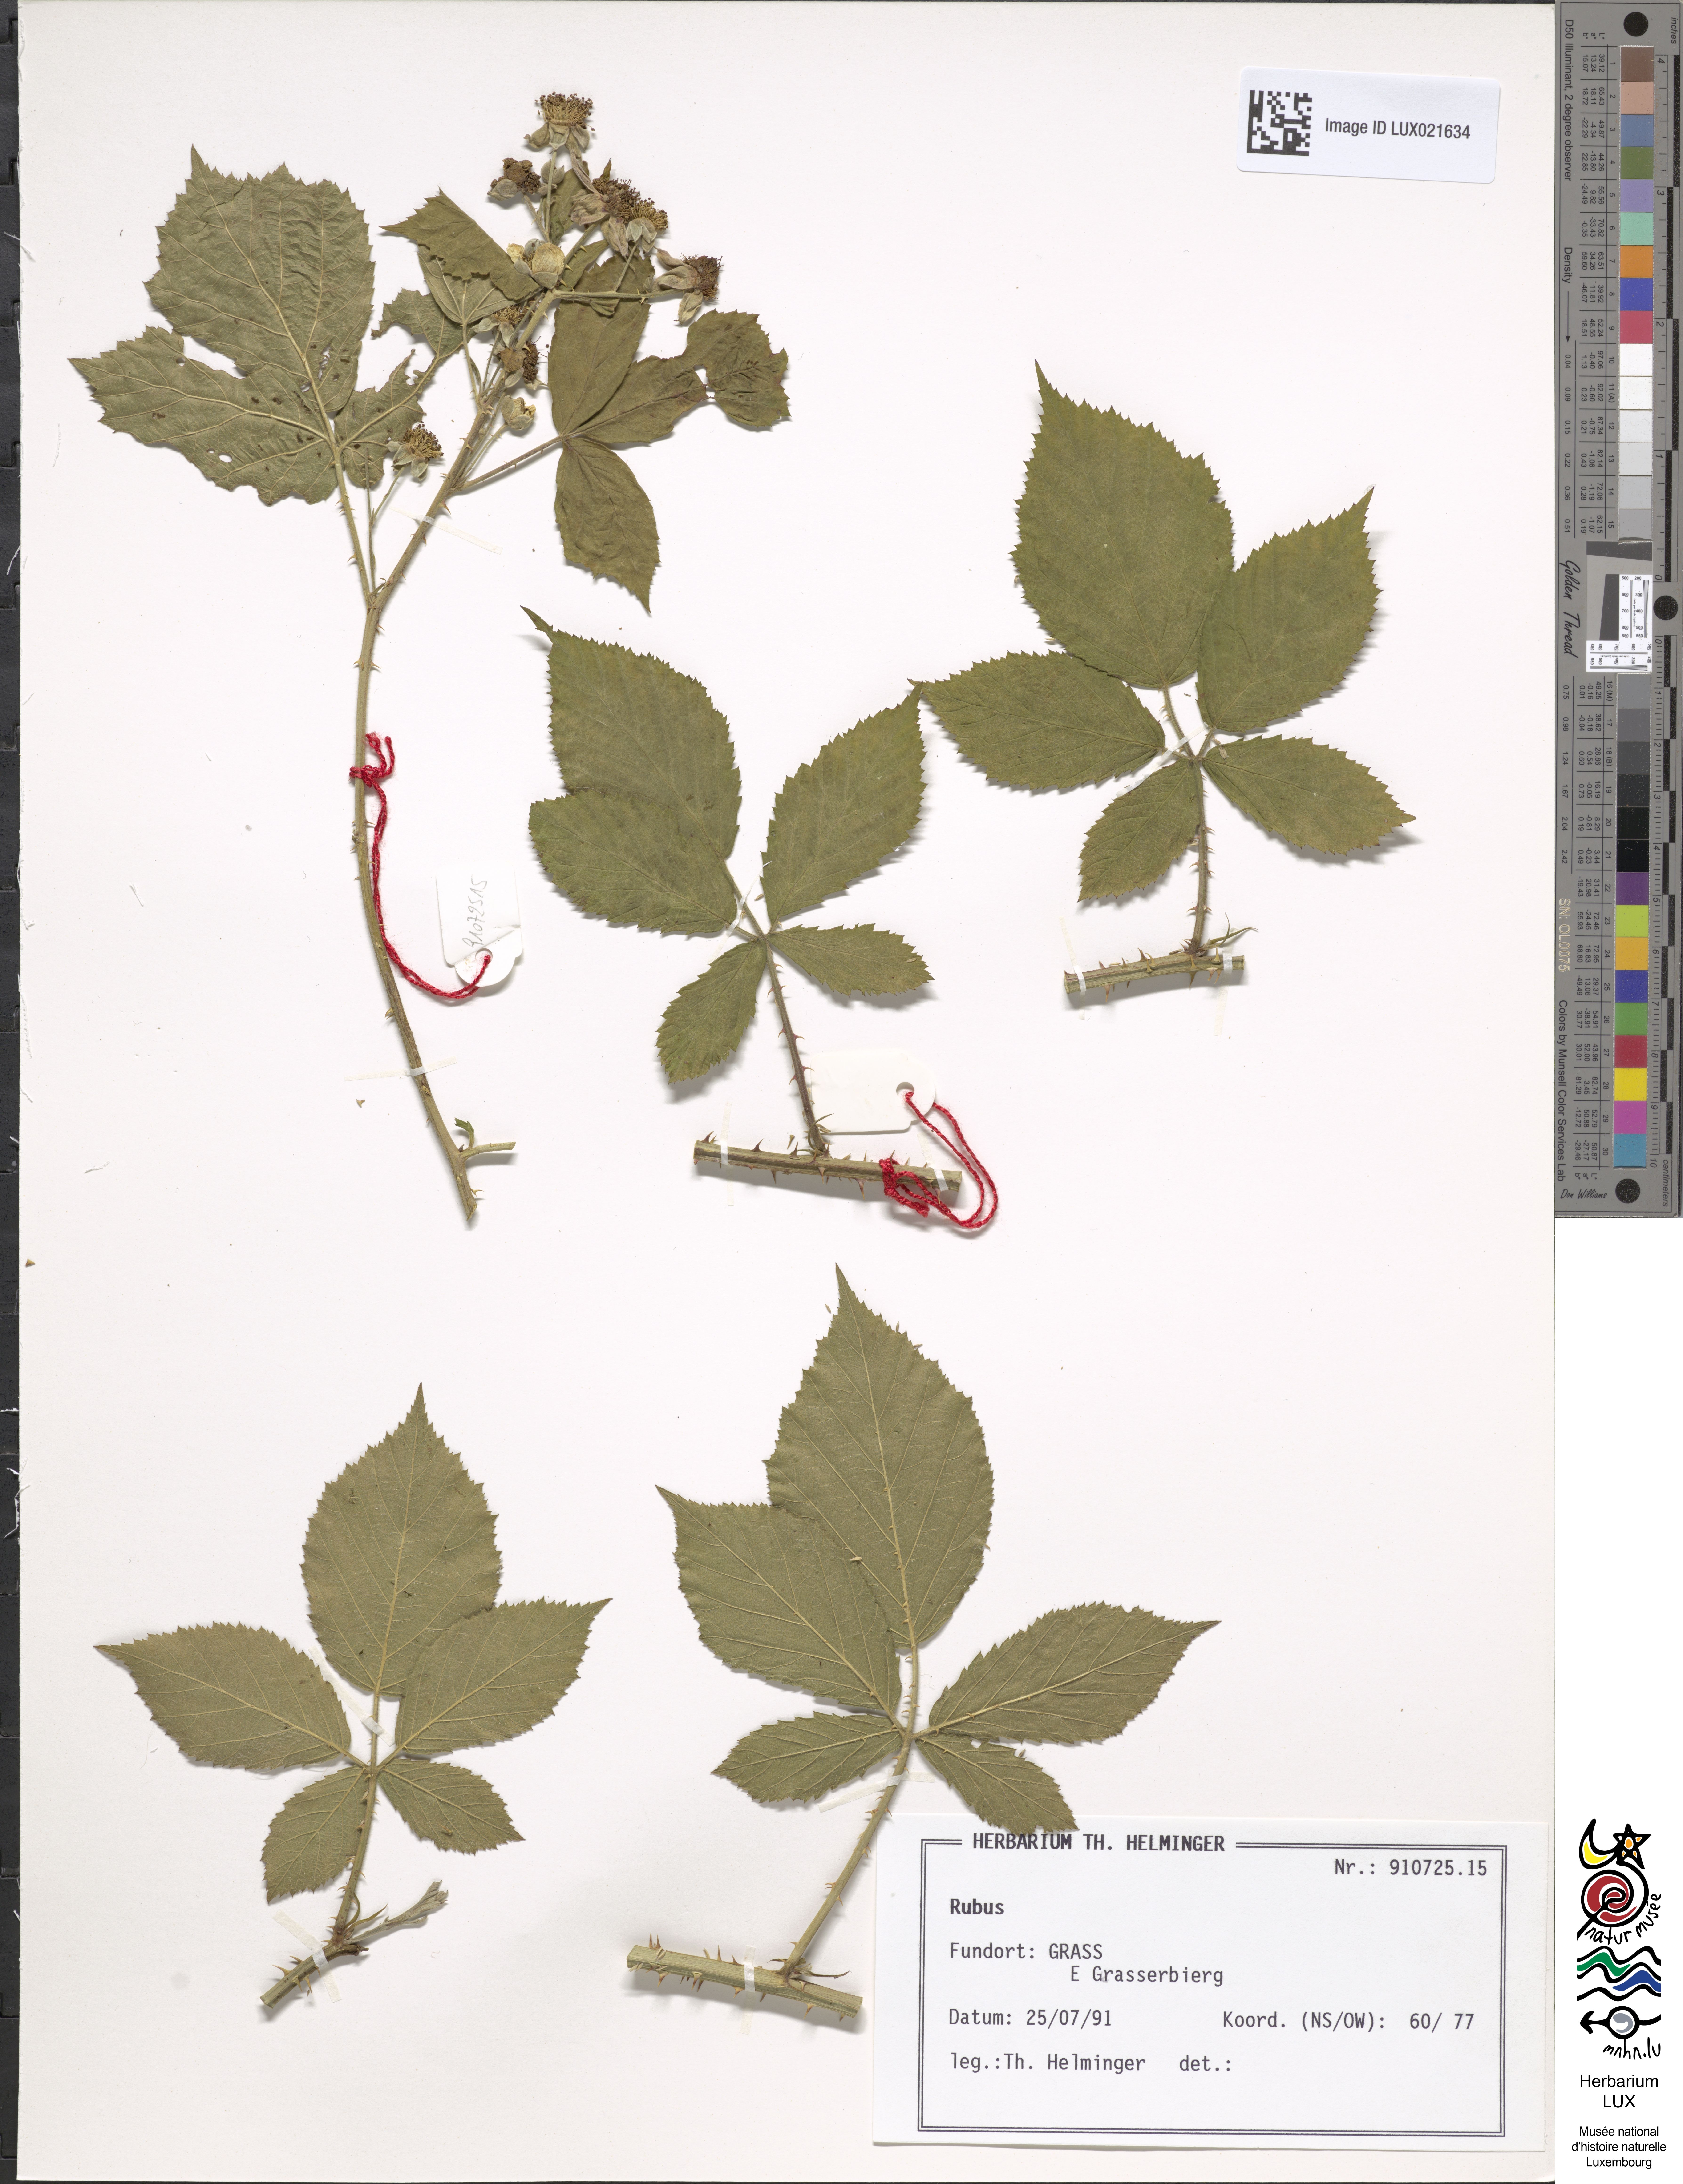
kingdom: Plantae
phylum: Tracheophyta
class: Magnoliopsida
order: Rosales
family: Rosaceae
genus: Rubus
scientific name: Rubus
